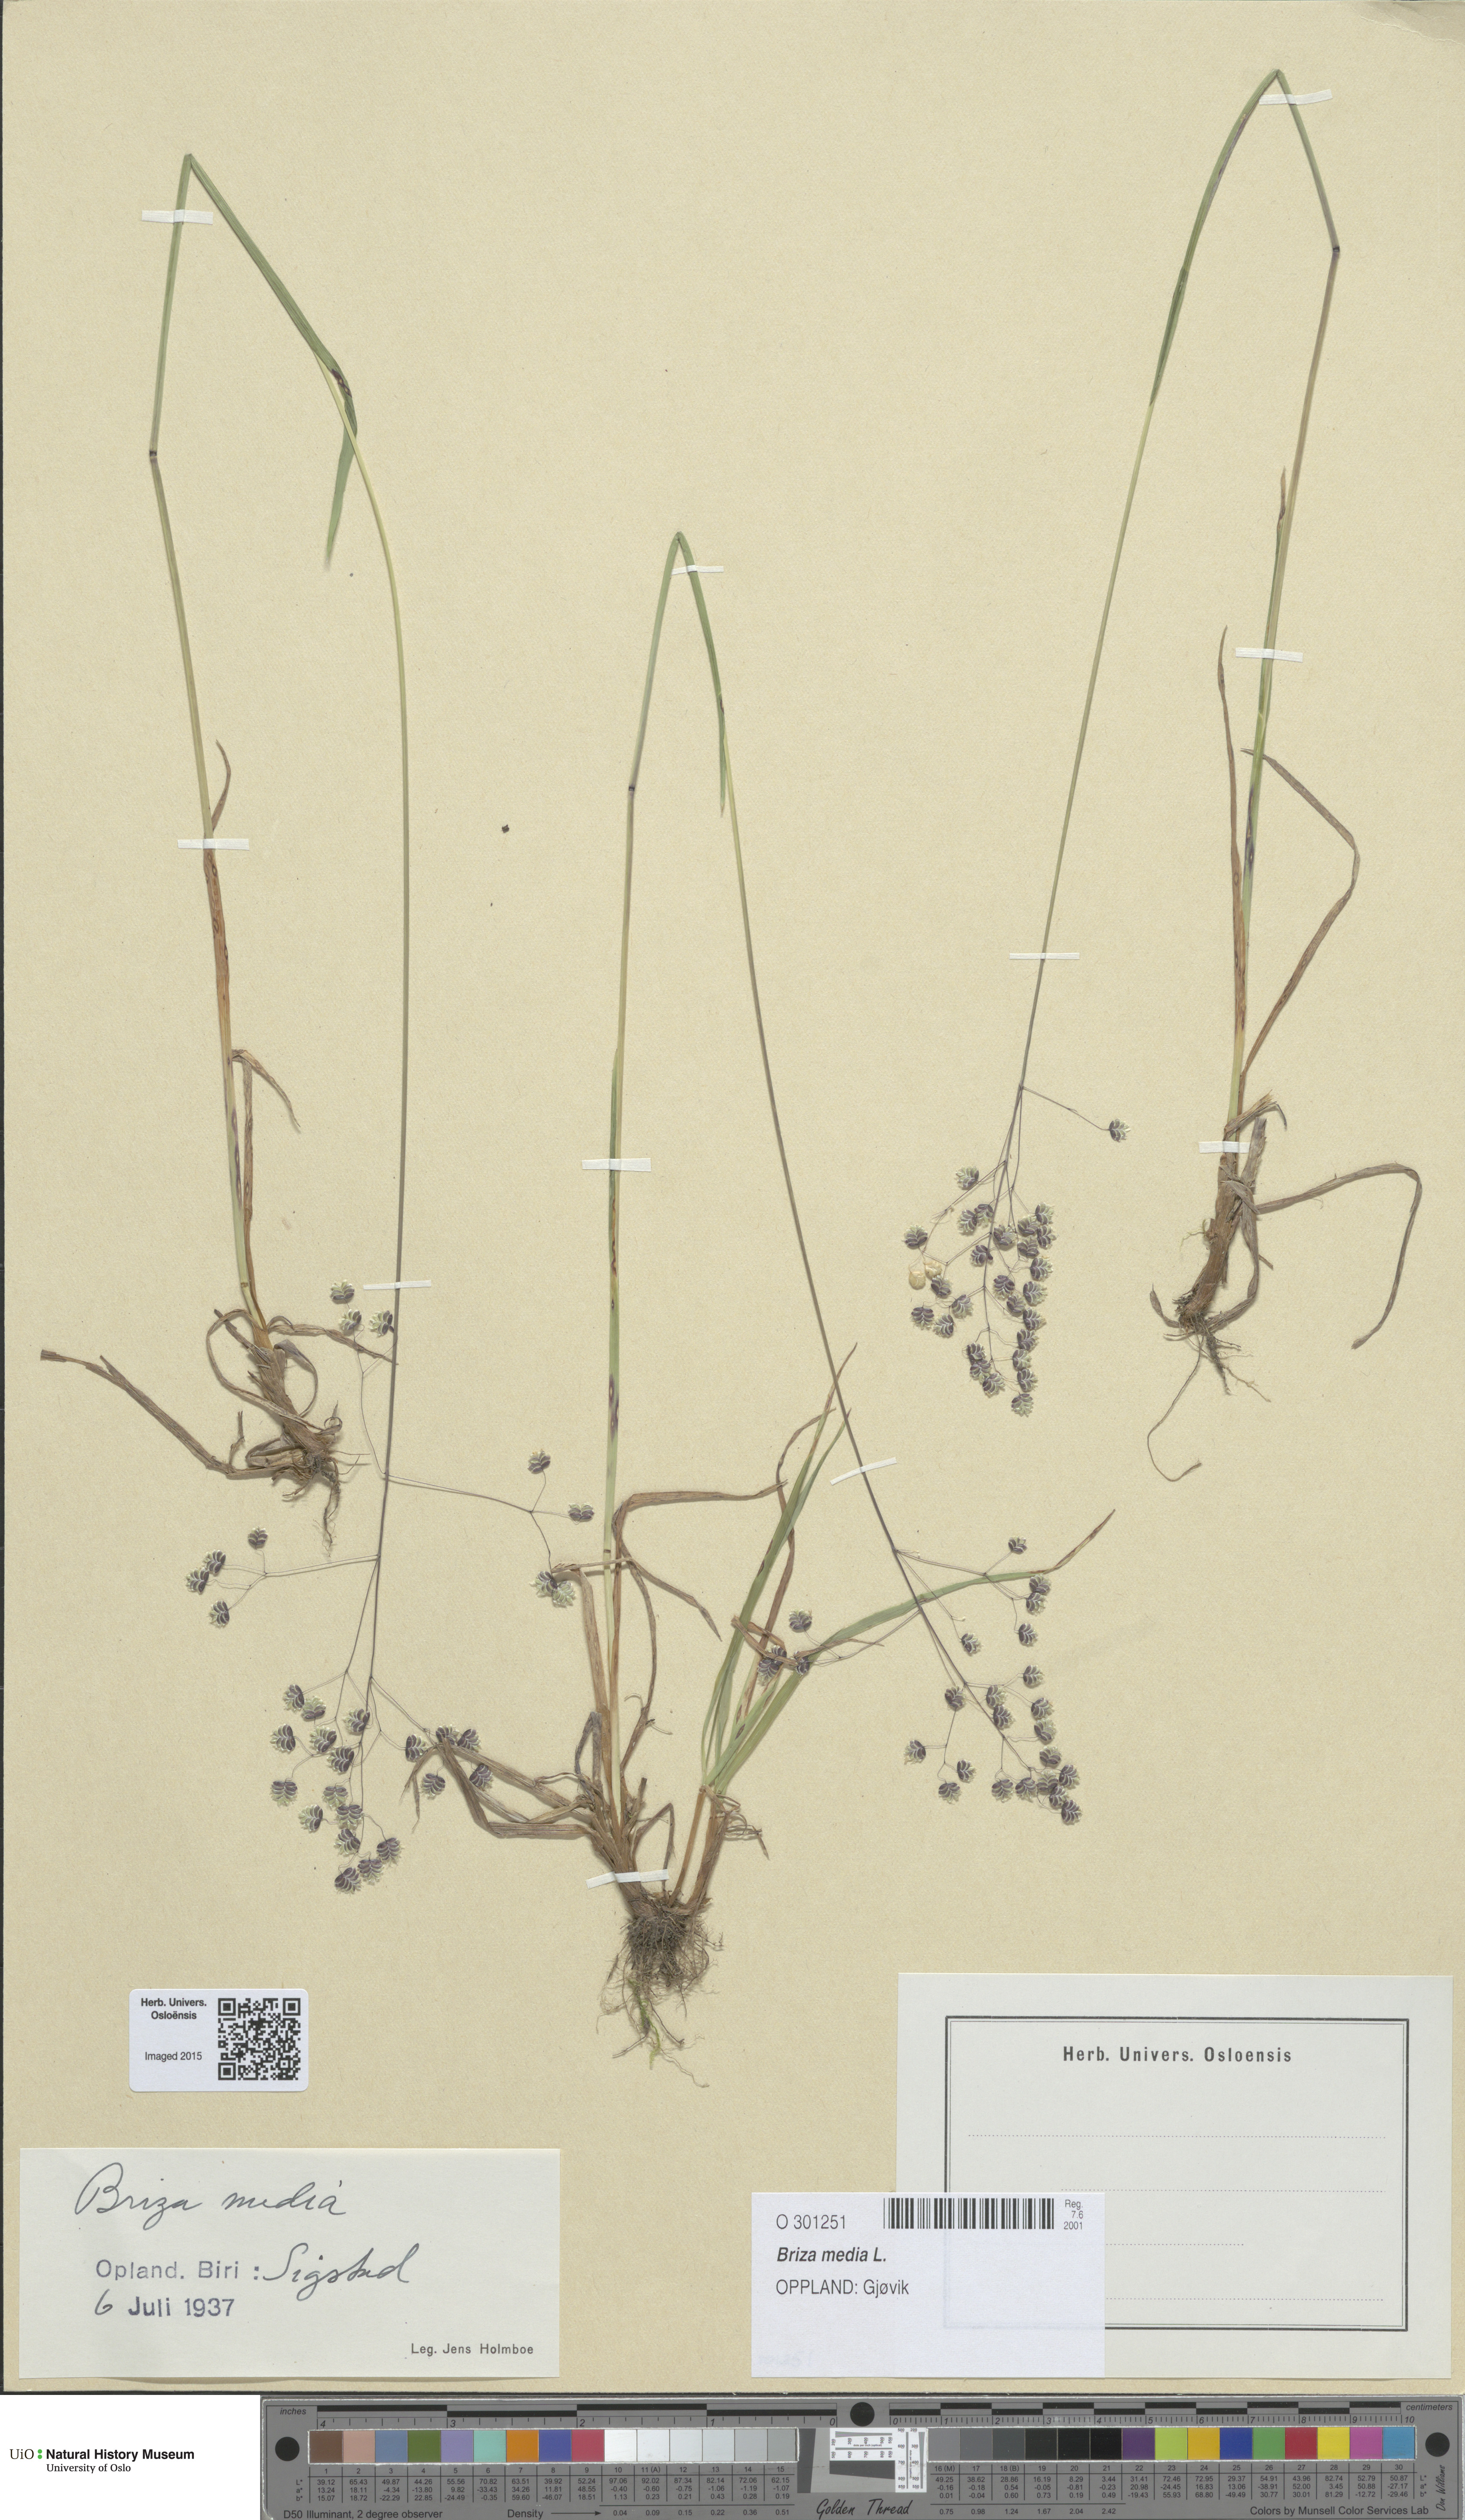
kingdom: Plantae
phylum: Tracheophyta
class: Liliopsida
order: Poales
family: Poaceae
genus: Briza
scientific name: Briza media
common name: Quaking grass
